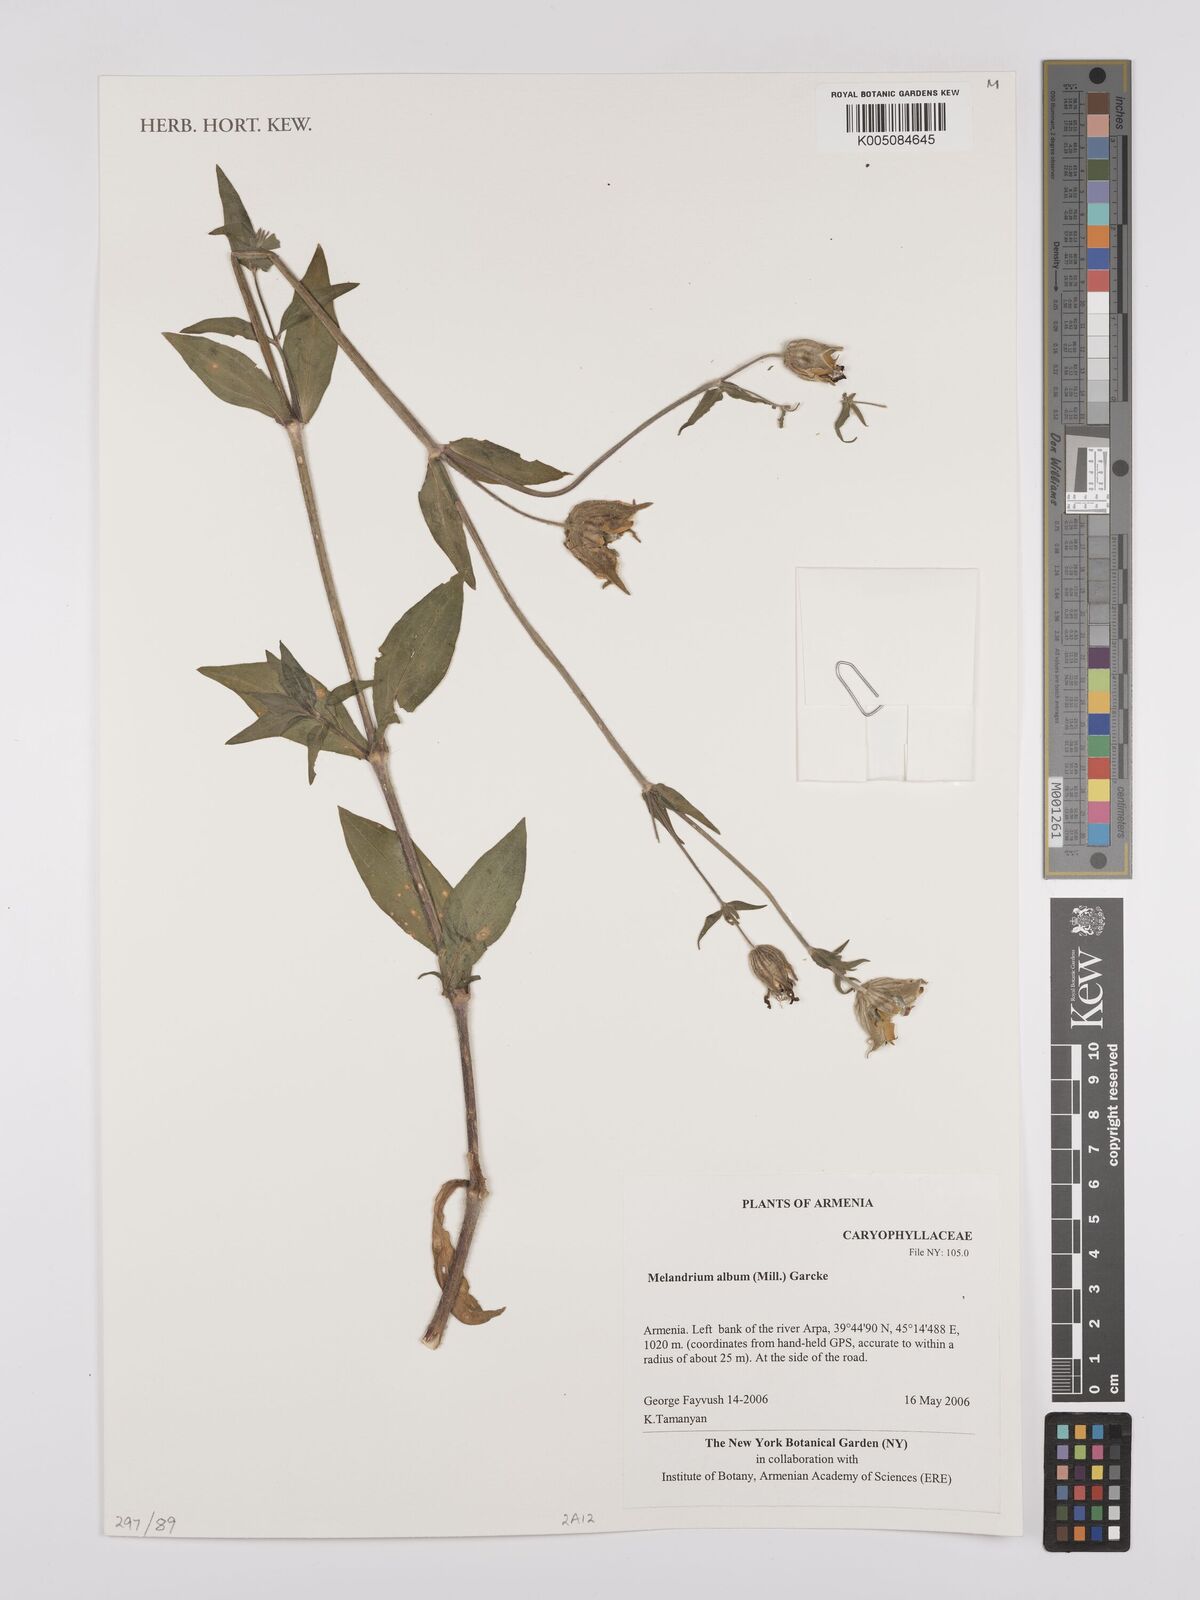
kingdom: Plantae
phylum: Tracheophyta
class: Magnoliopsida
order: Caryophyllales
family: Caryophyllaceae
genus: Silene
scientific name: Silene latifolia
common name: White campion
